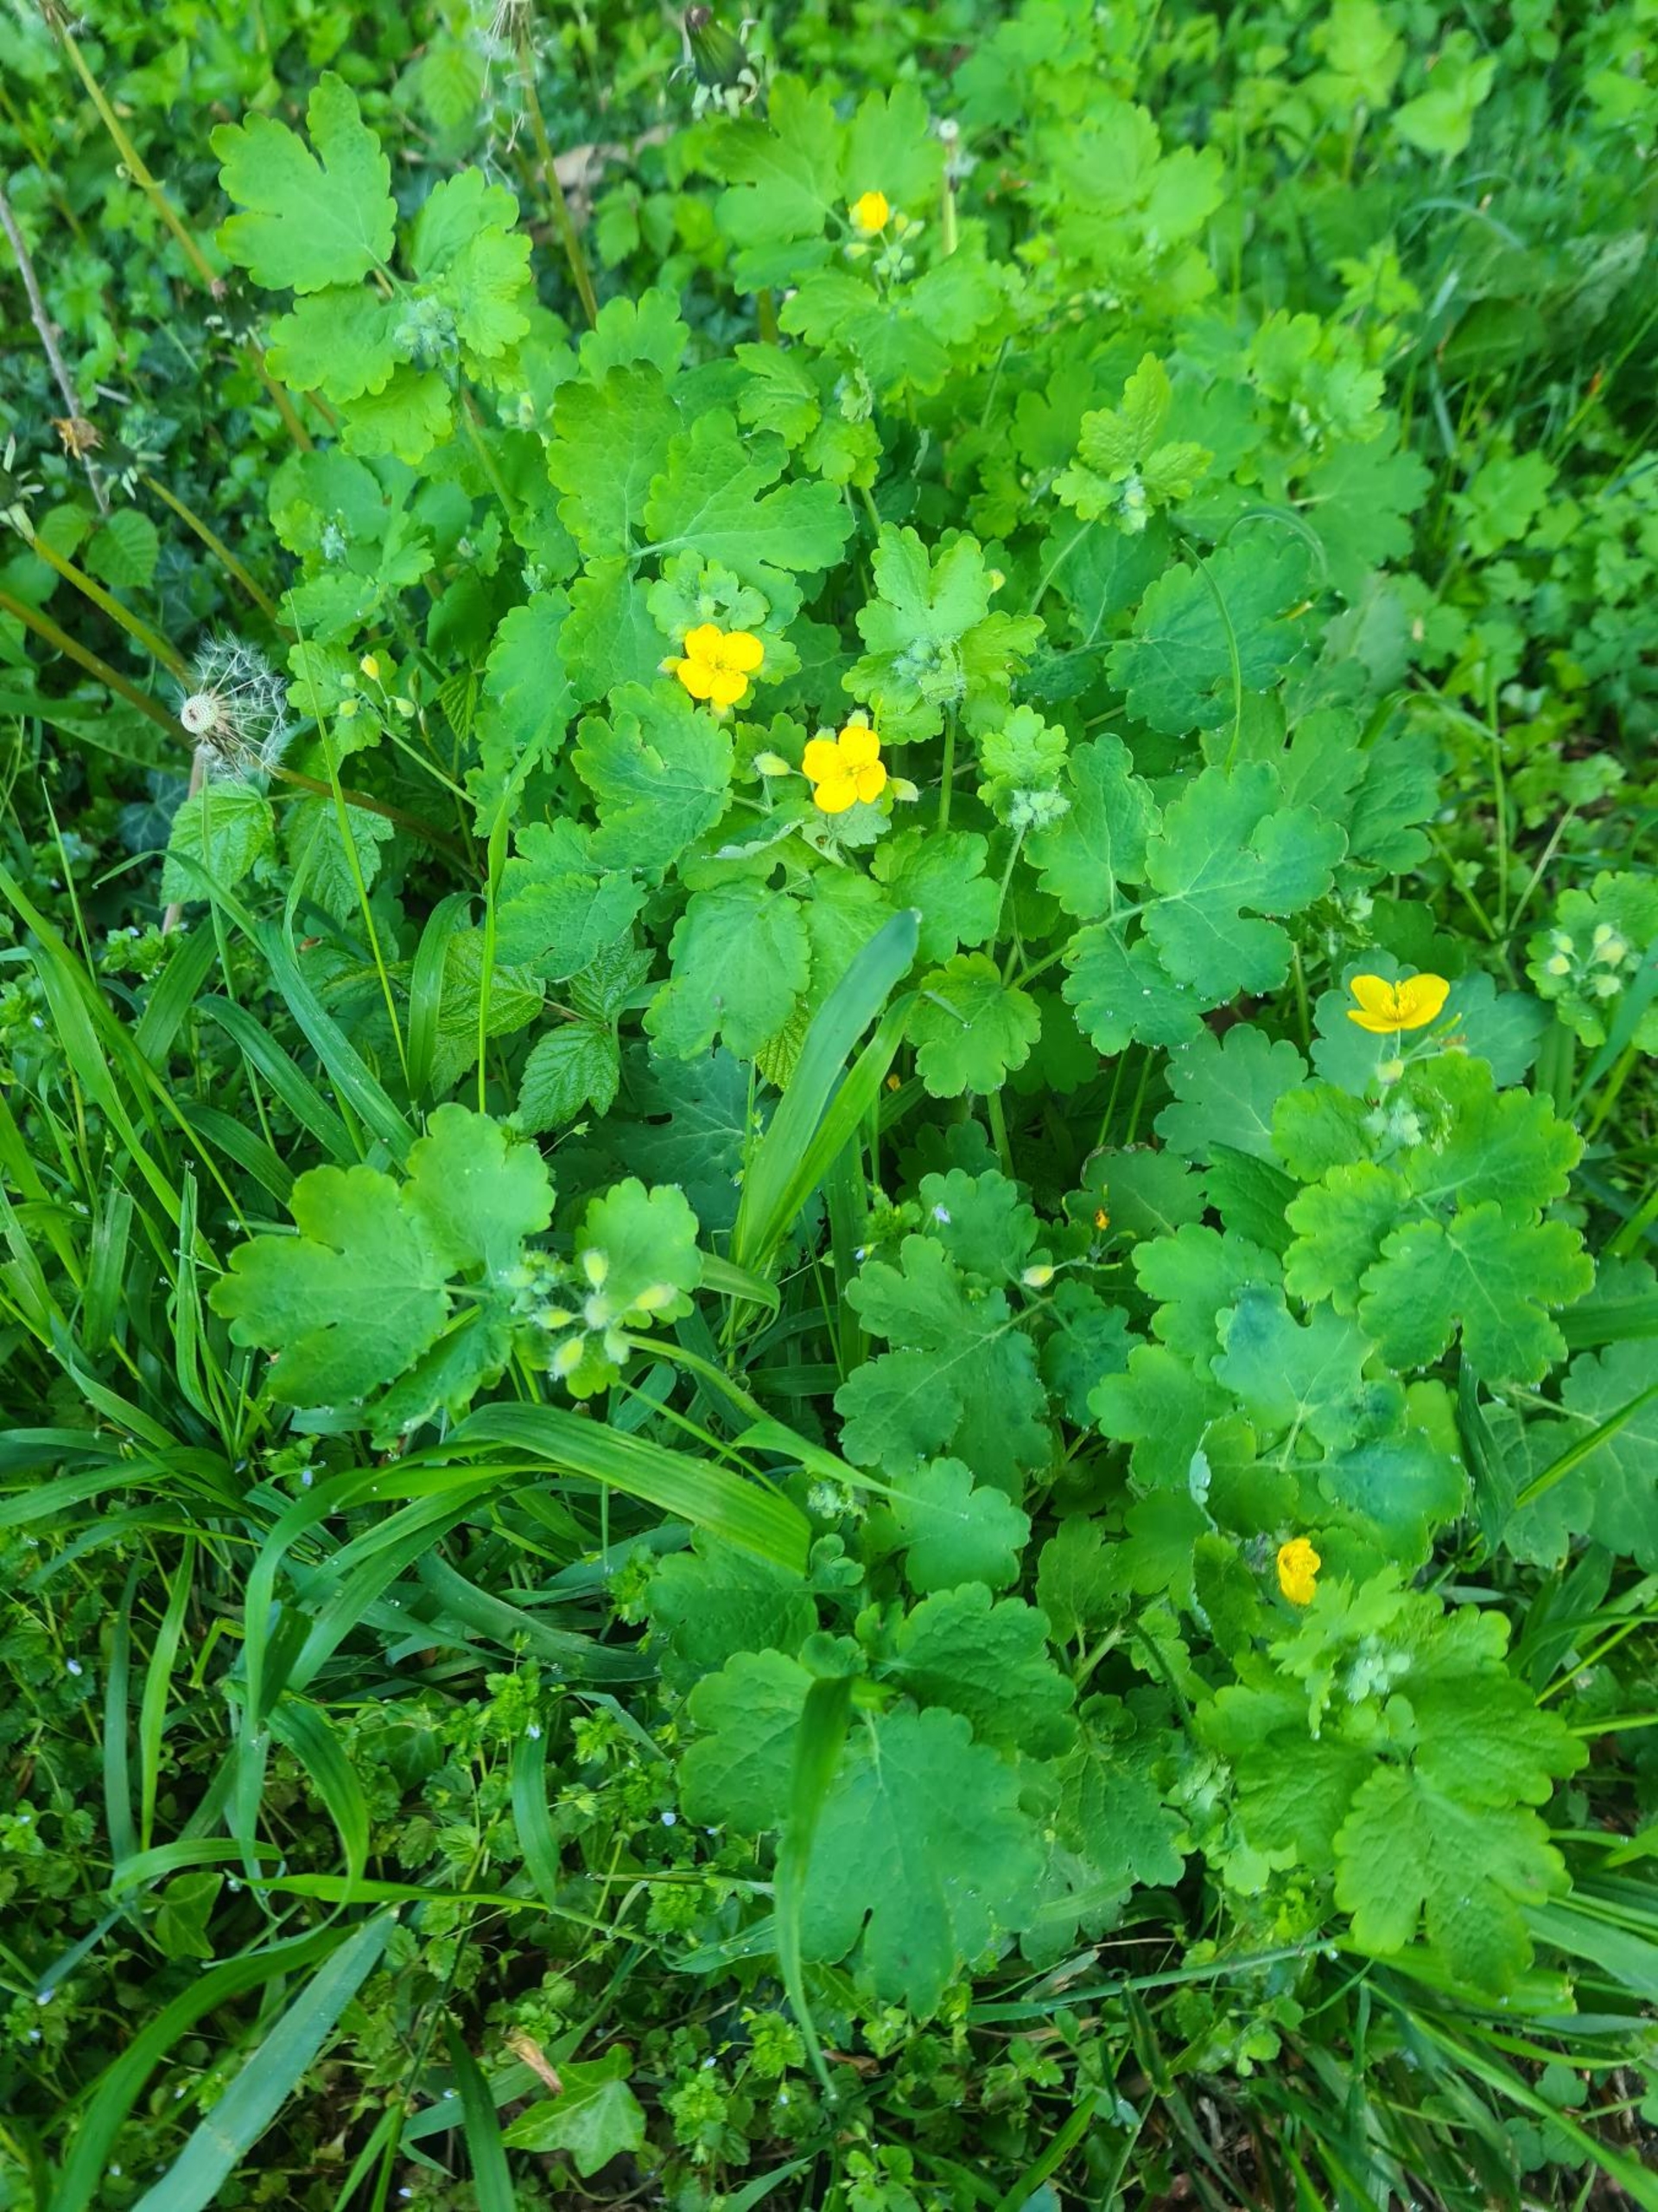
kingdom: Plantae
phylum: Tracheophyta
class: Magnoliopsida
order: Ranunculales
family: Papaveraceae
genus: Chelidonium
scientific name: Chelidonium majus
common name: Svaleurt
